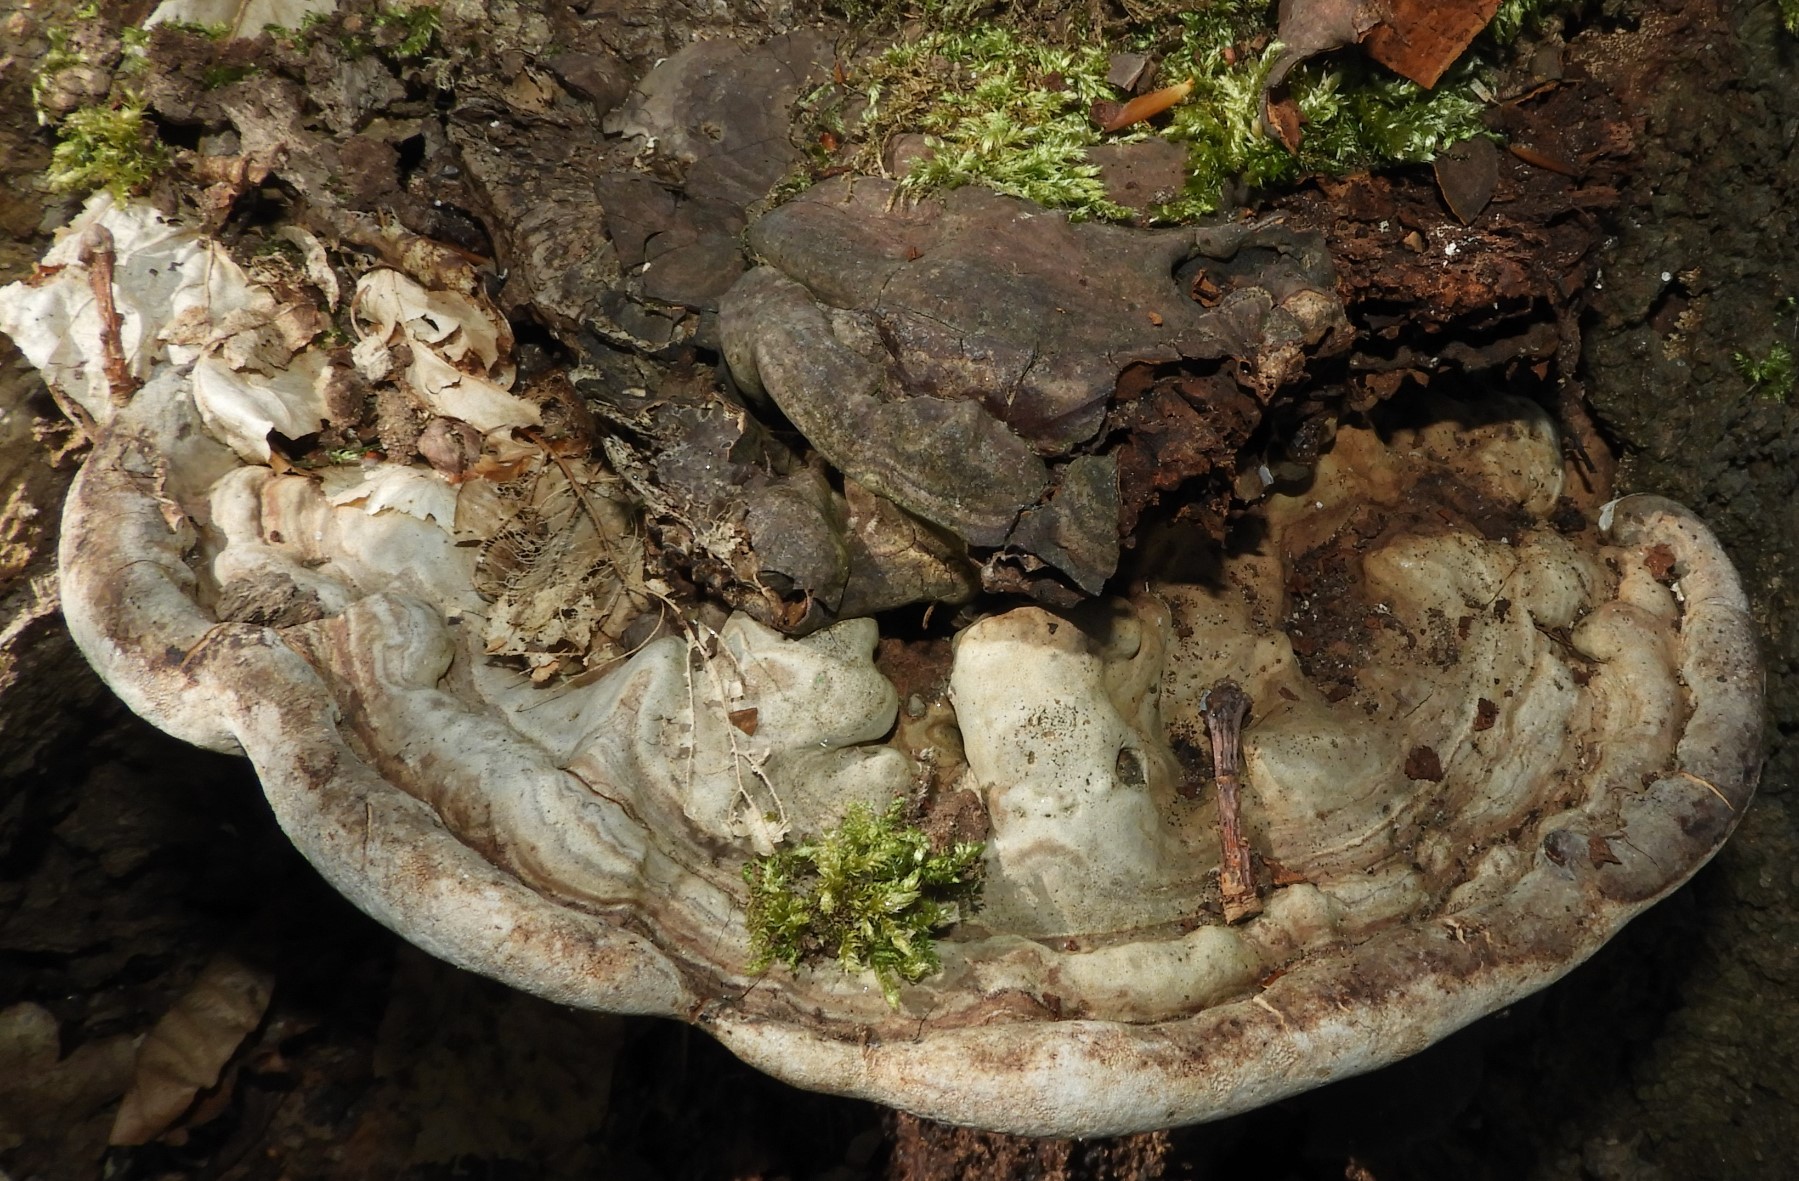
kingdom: Fungi
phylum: Basidiomycota
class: Agaricomycetes
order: Polyporales
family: Polyporaceae
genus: Ganoderma
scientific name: Ganoderma applanatum
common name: flad lakporesvamp
